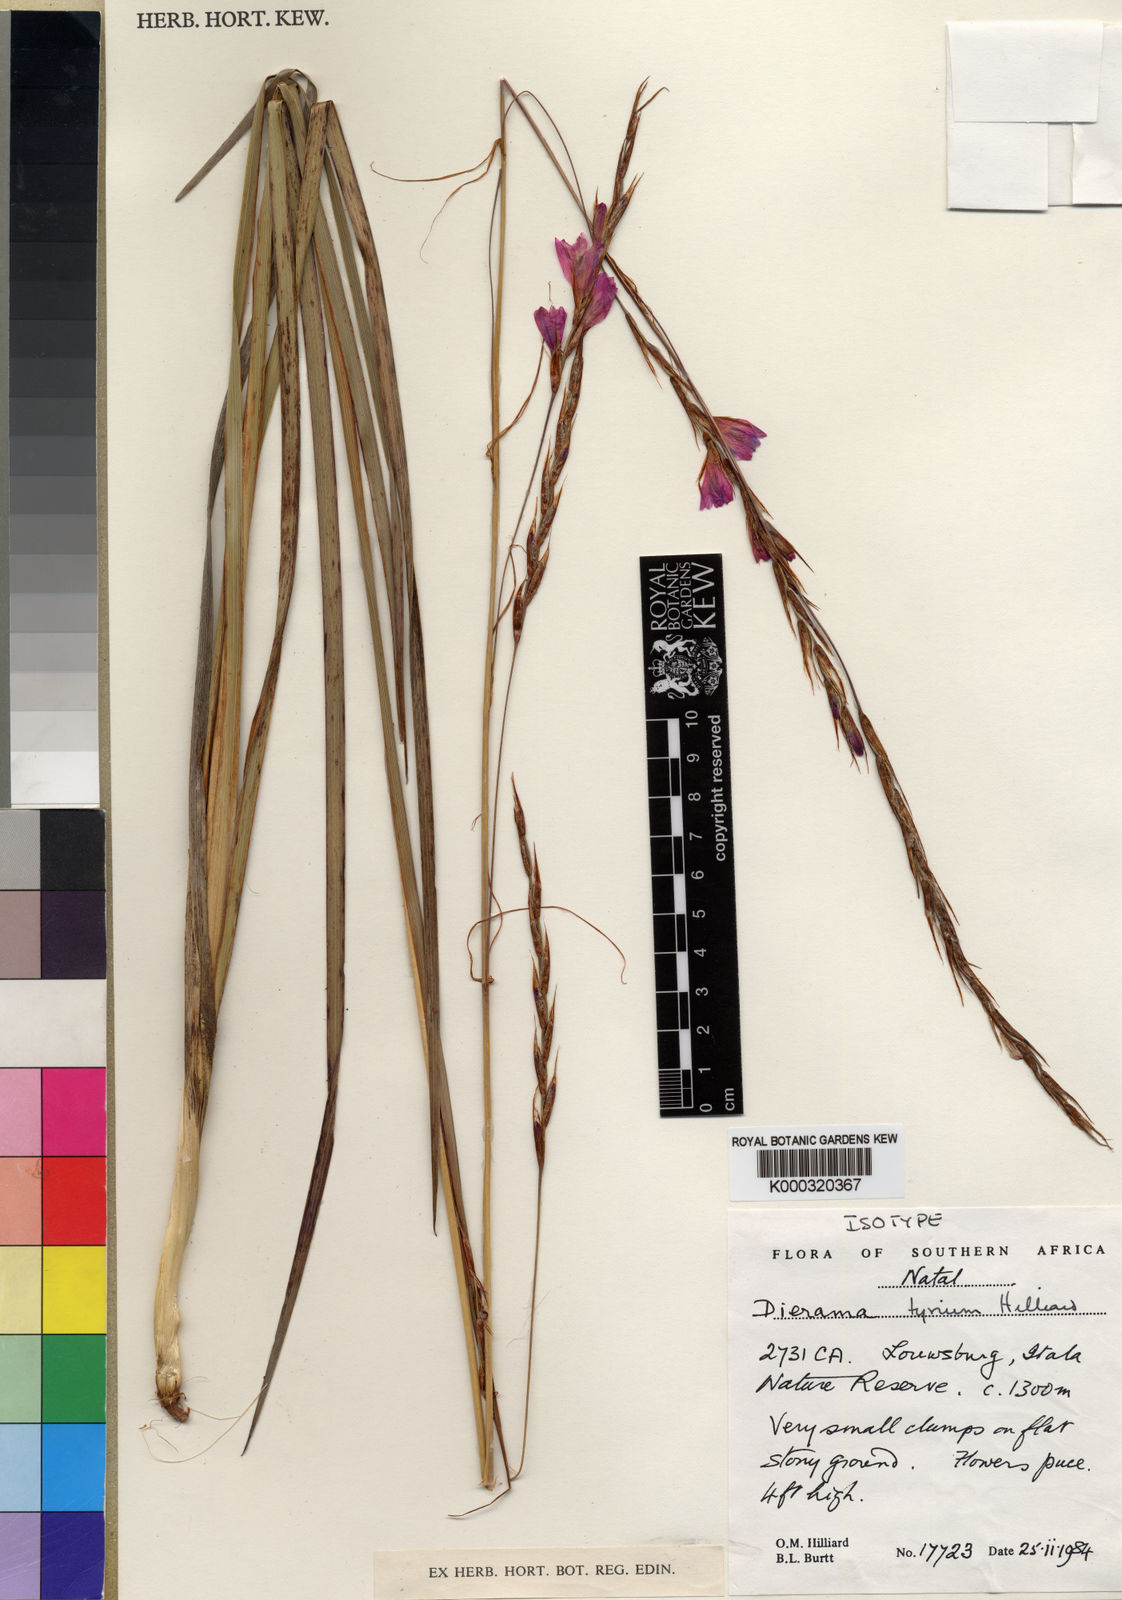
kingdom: Plantae
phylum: Tracheophyta
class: Liliopsida
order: Asparagales
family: Iridaceae
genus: Dierama
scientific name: Dierama tyrium
